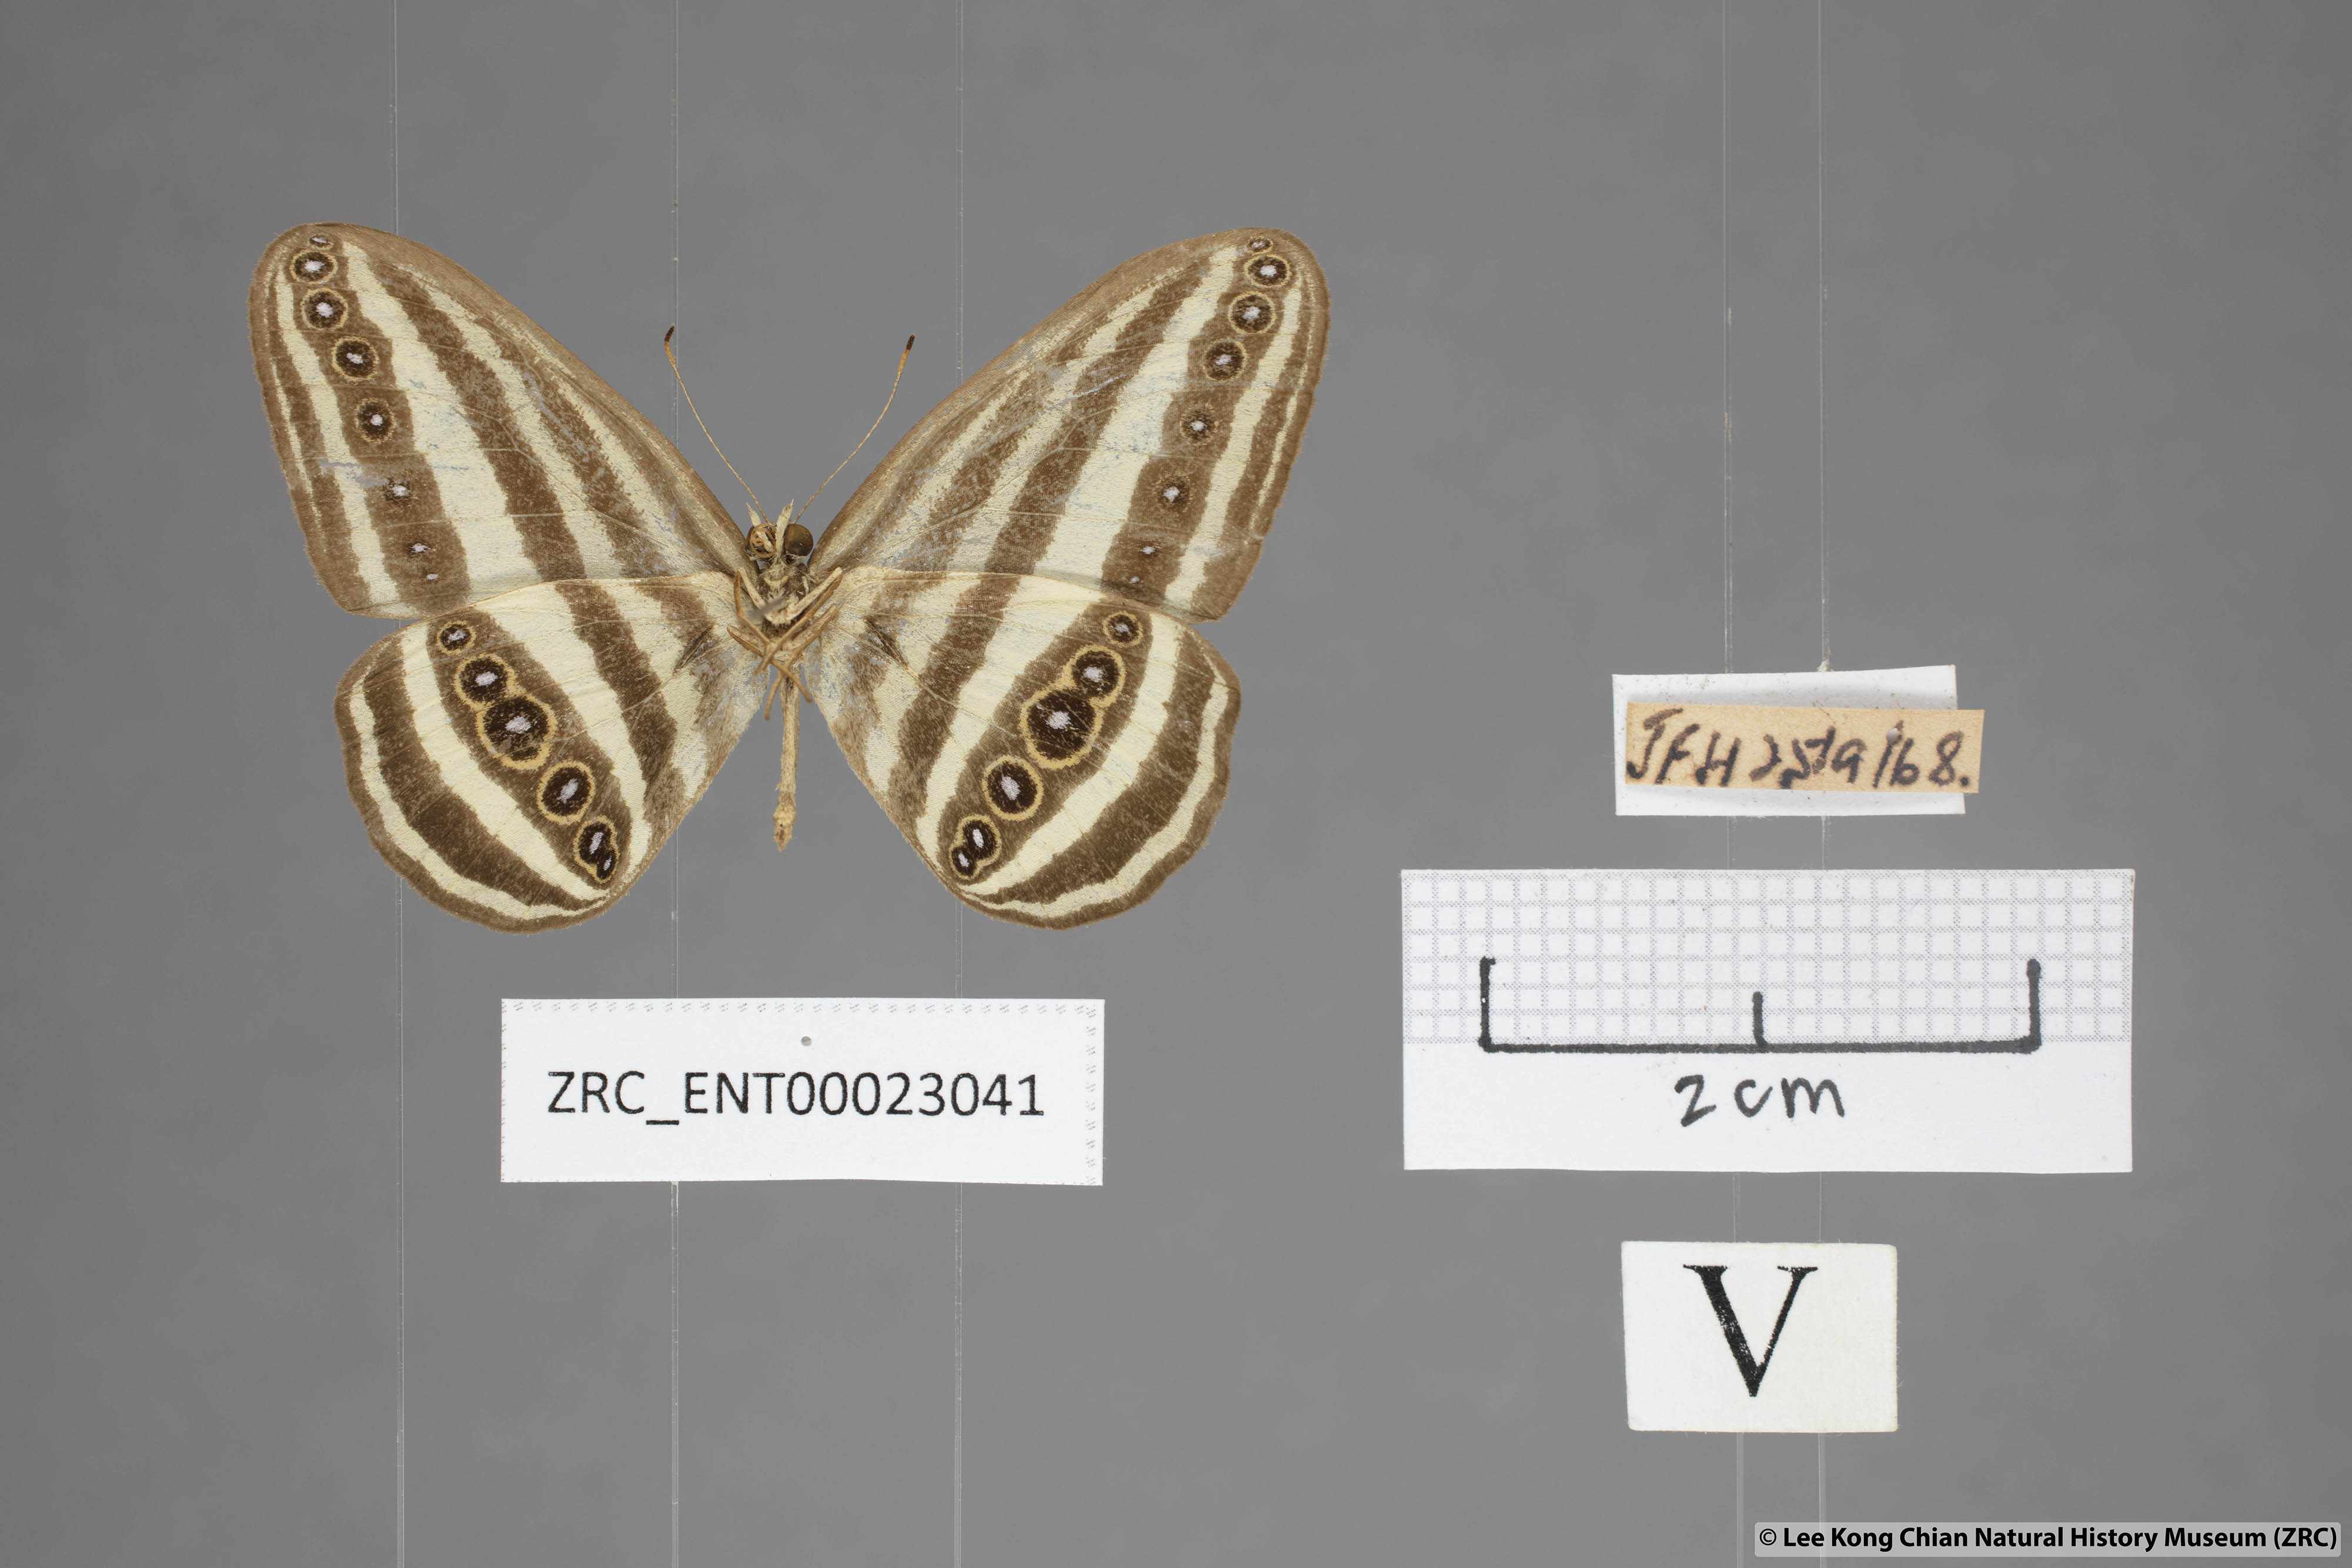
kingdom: Animalia
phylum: Arthropoda
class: Insecta
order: Lepidoptera
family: Nymphalidae
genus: Ragadia
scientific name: Ragadia crisilda
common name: White-striped ringlet
